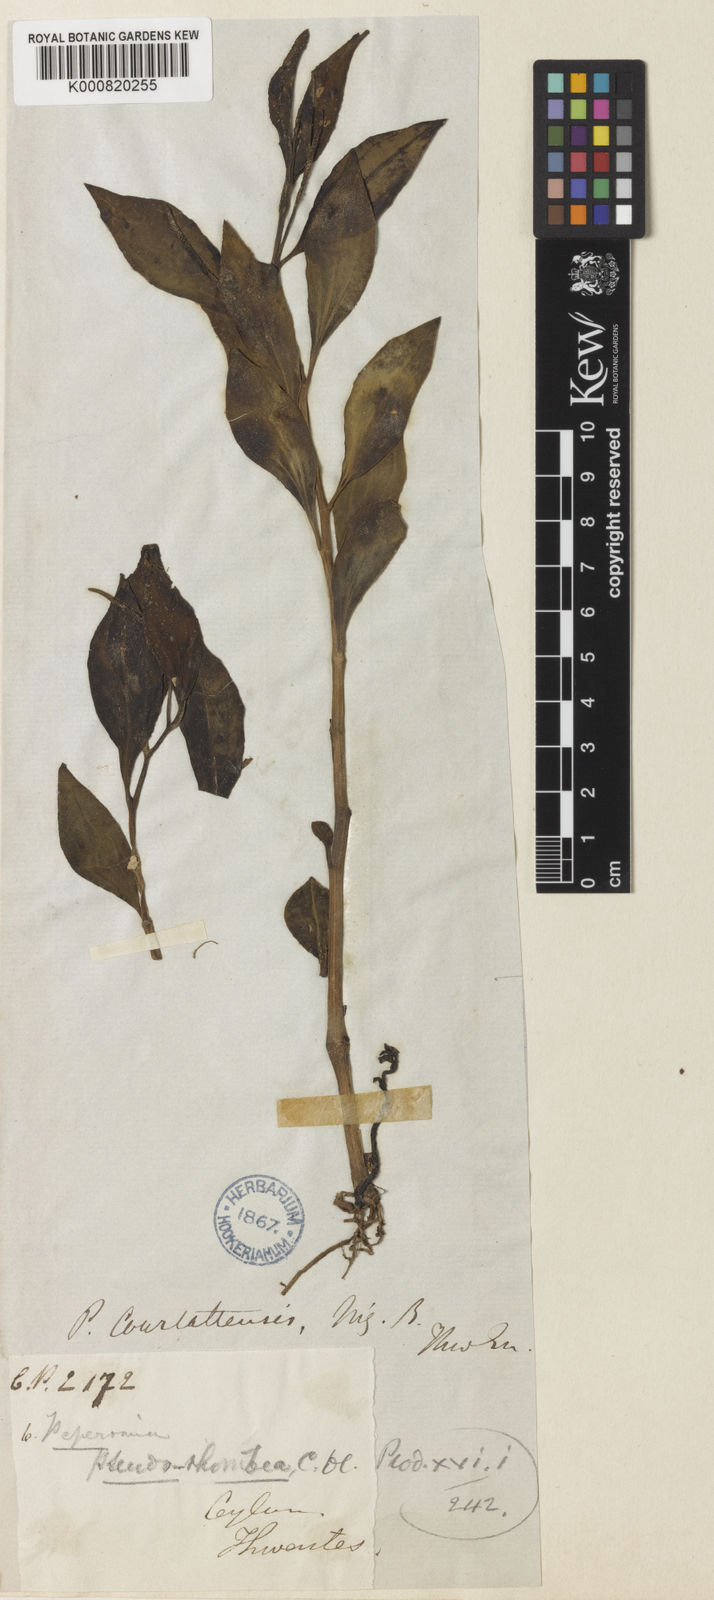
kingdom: Plantae
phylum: Tracheophyta
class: Magnoliopsida
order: Piperales
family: Piperaceae
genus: Peperomia
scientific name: Peperomia pseudorhombea
